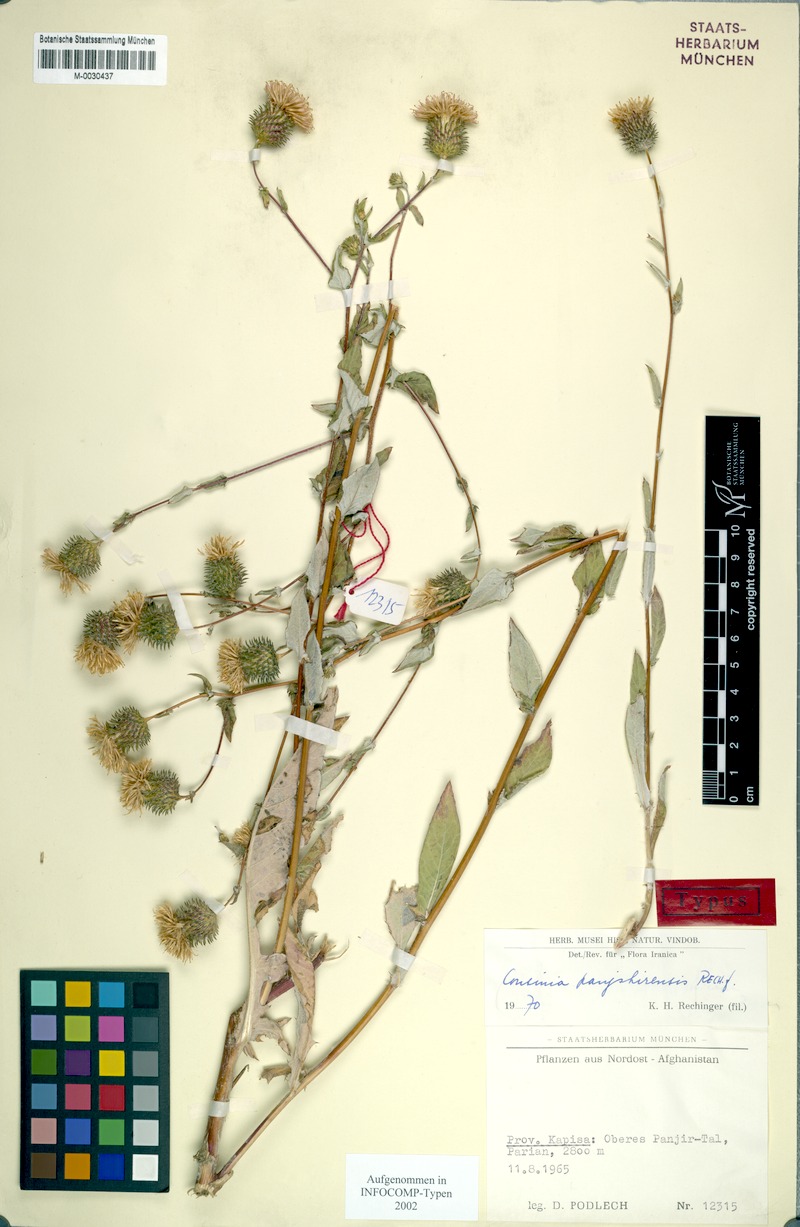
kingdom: Plantae
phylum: Tracheophyta
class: Magnoliopsida
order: Asterales
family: Asteraceae
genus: Cousinia
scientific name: Cousinia panjshirensis
